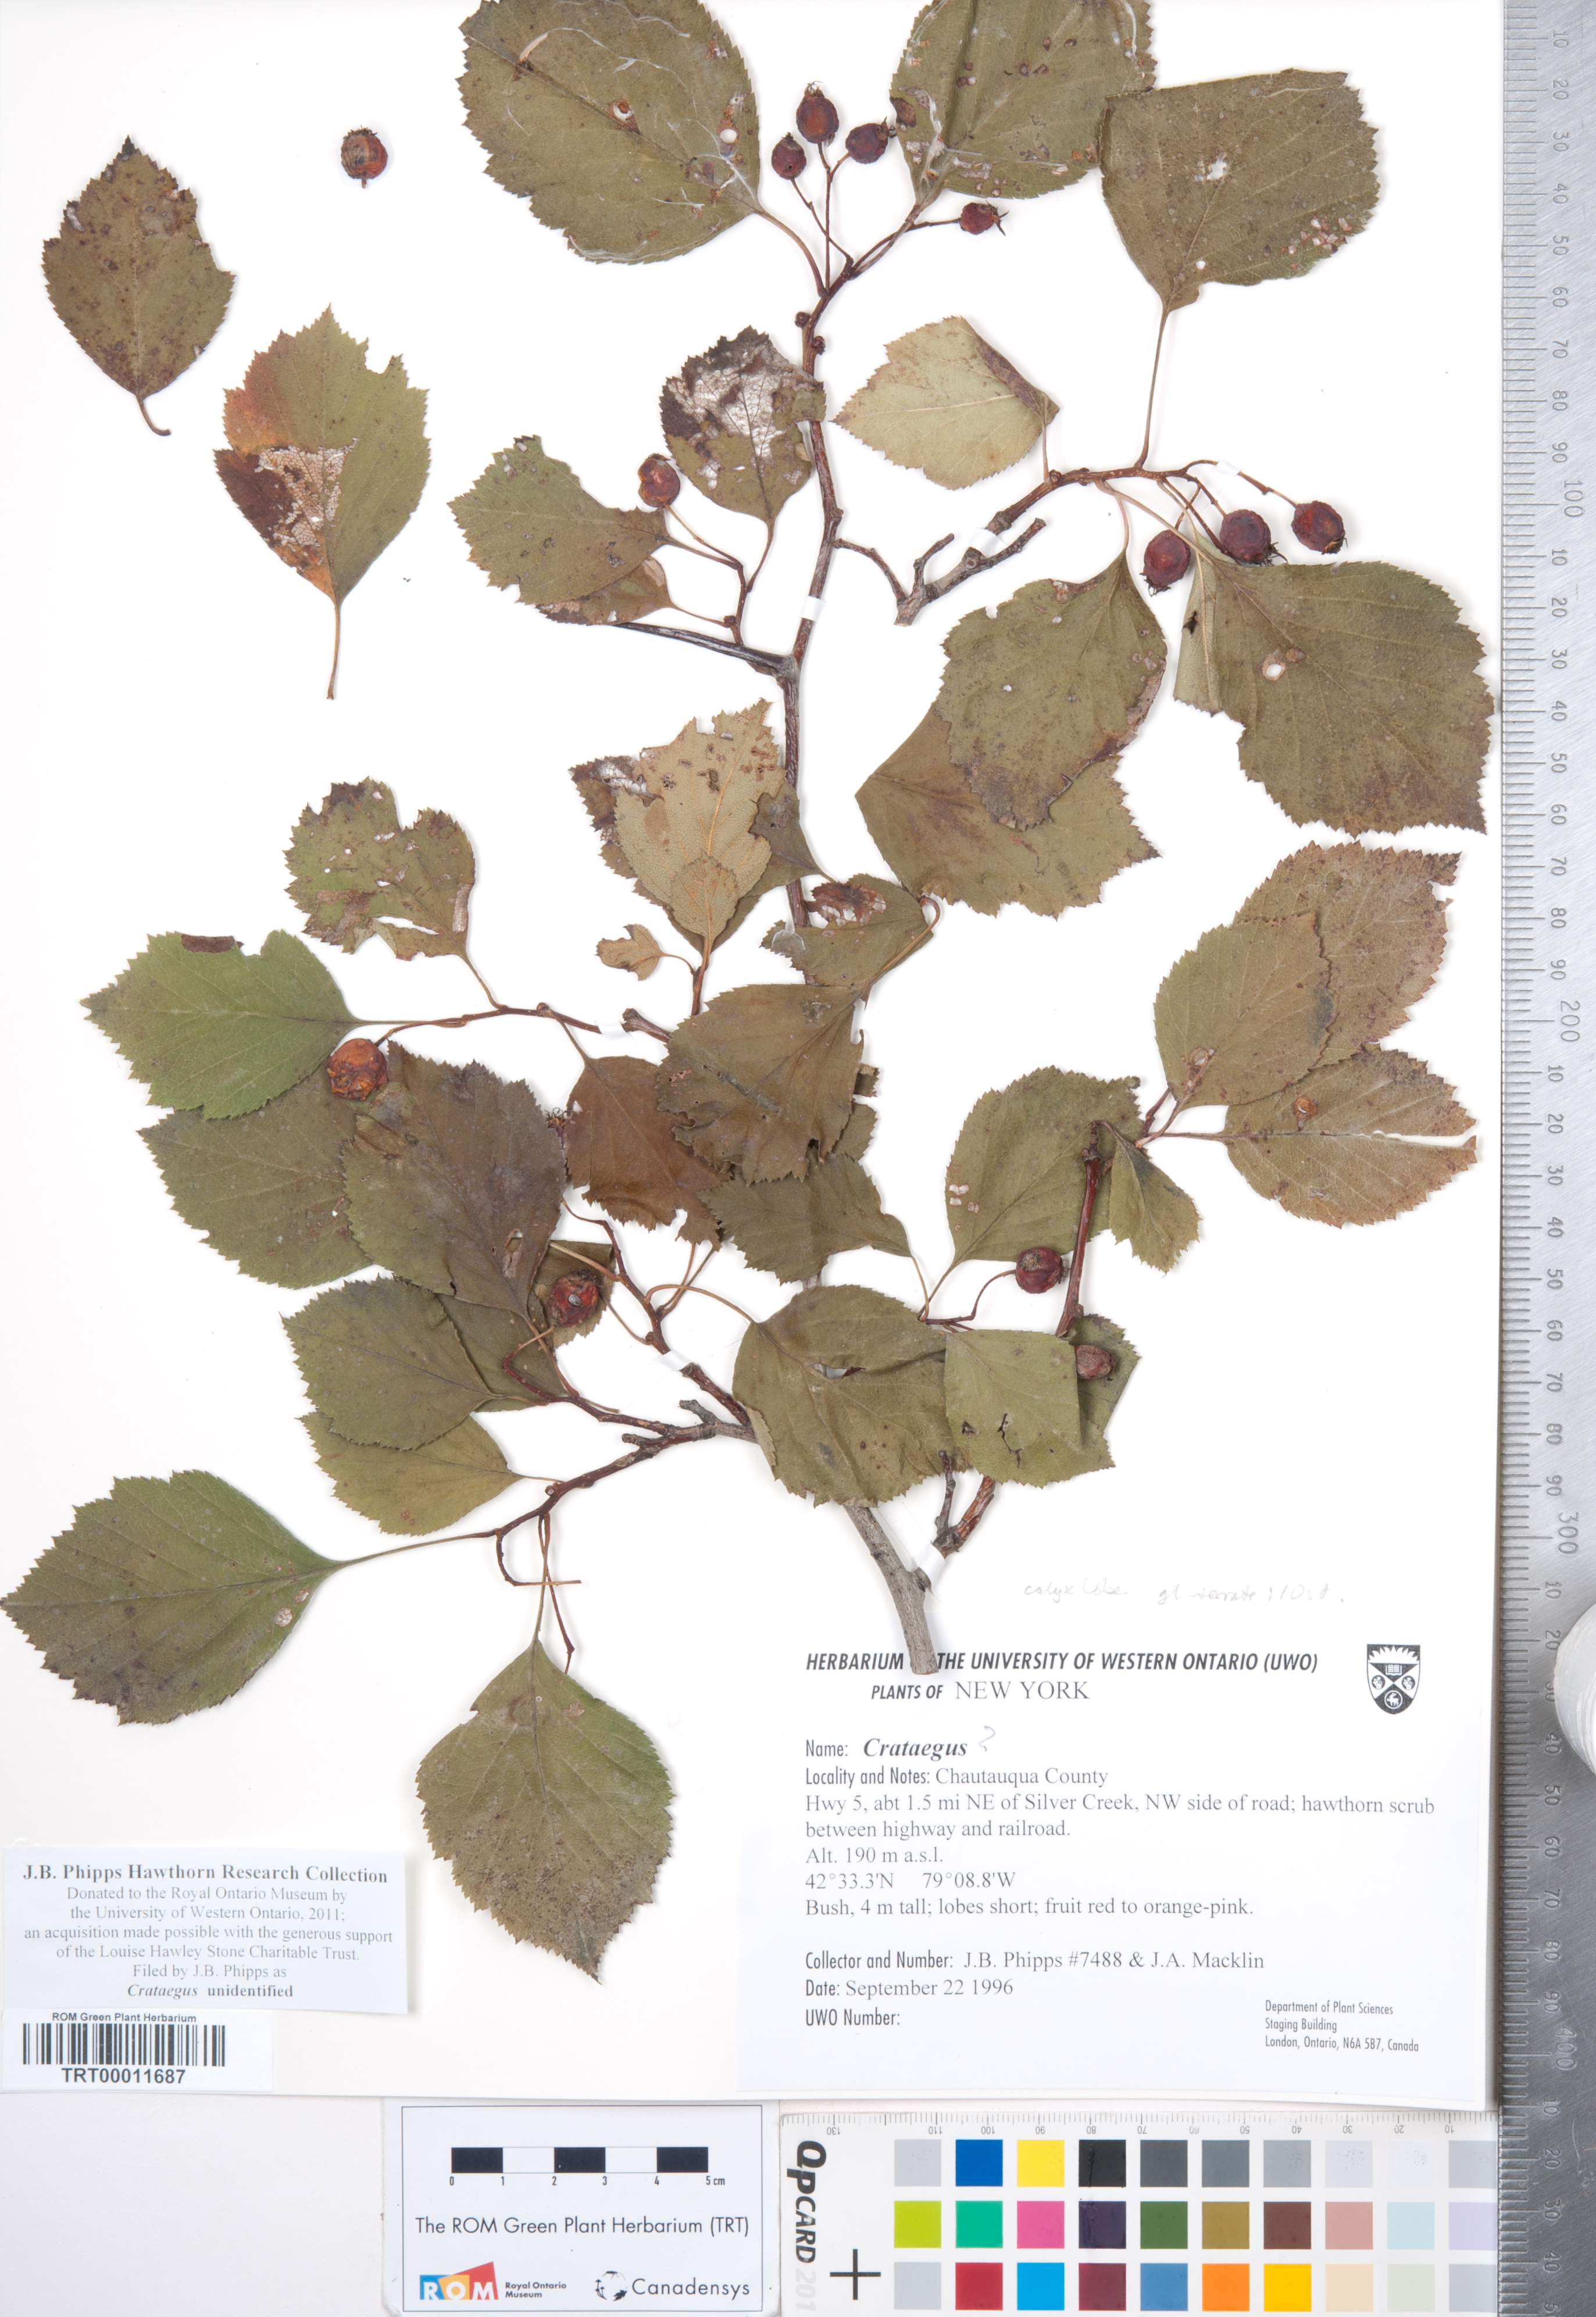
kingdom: Plantae
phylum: Tracheophyta
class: Magnoliopsida
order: Rosales
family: Rosaceae
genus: Crataegus
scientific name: Crataegus
